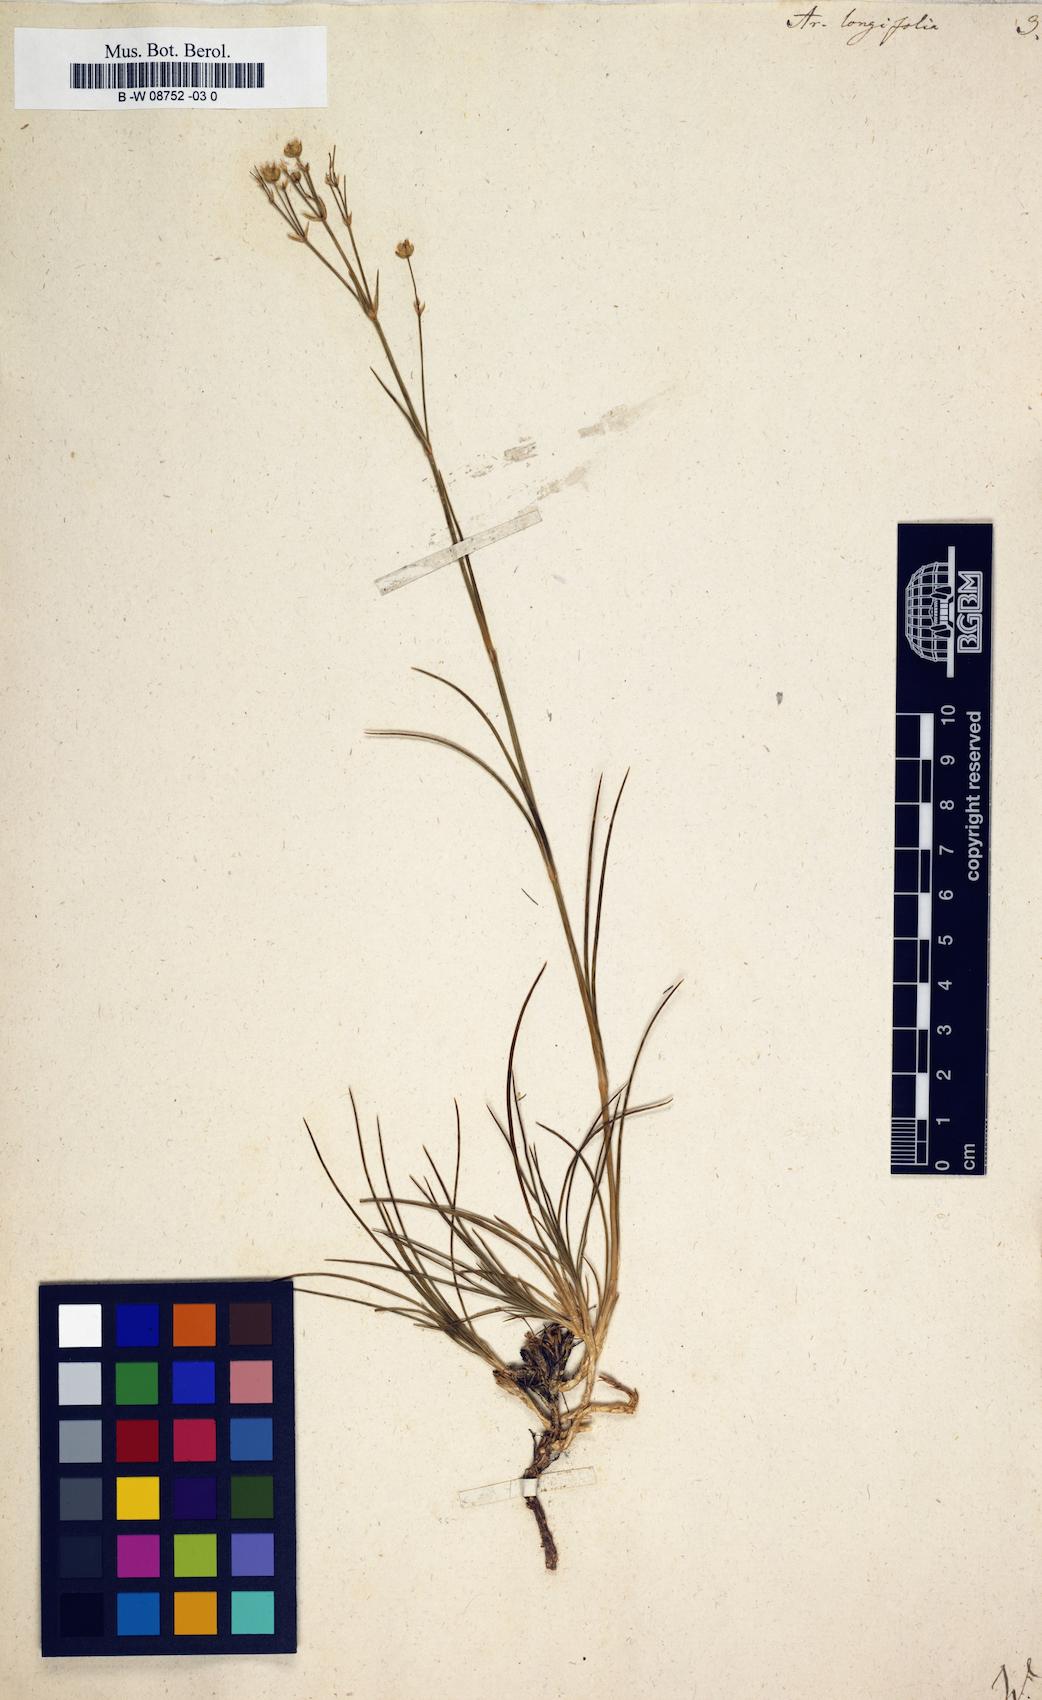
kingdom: Plantae
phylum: Tracheophyta
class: Magnoliopsida
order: Caryophyllales
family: Caryophyllaceae
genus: Eremogone
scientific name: Eremogone
